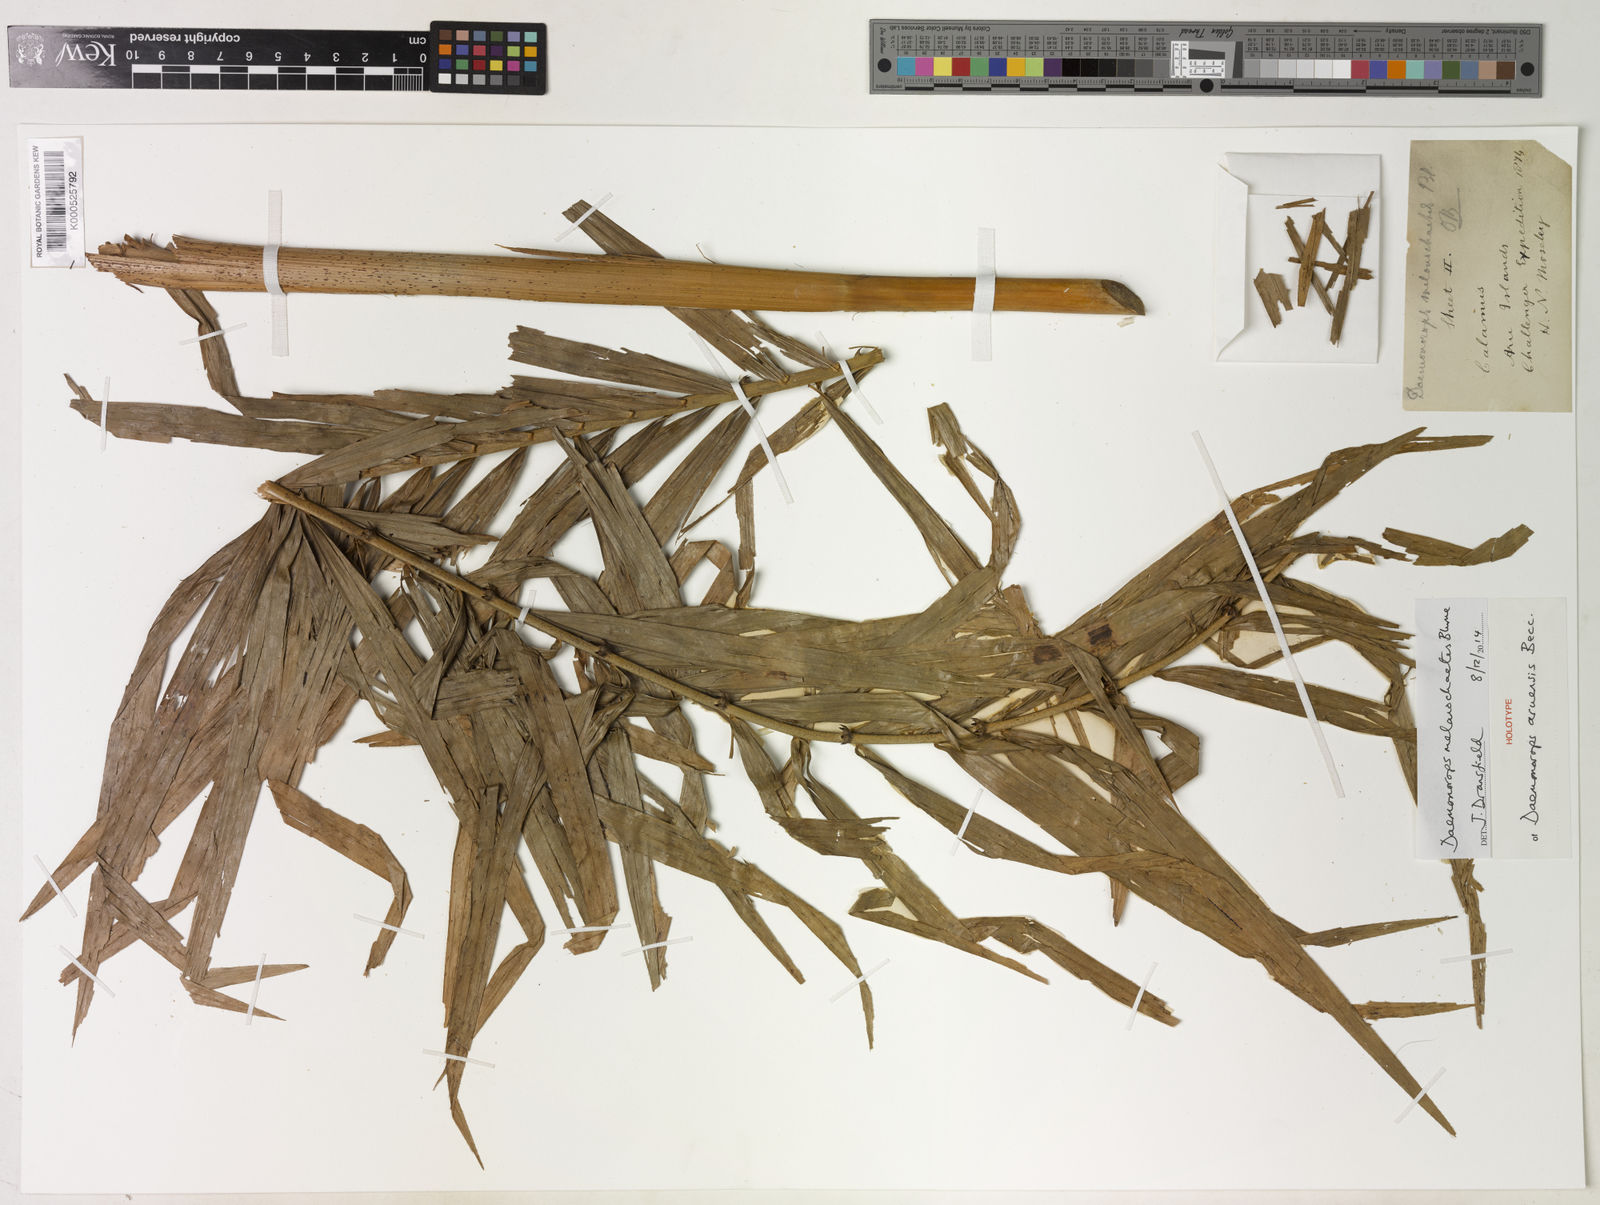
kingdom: Plantae
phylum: Tracheophyta
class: Liliopsida
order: Arecales
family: Arecaceae
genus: Calamus
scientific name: Calamus melanochaetes
